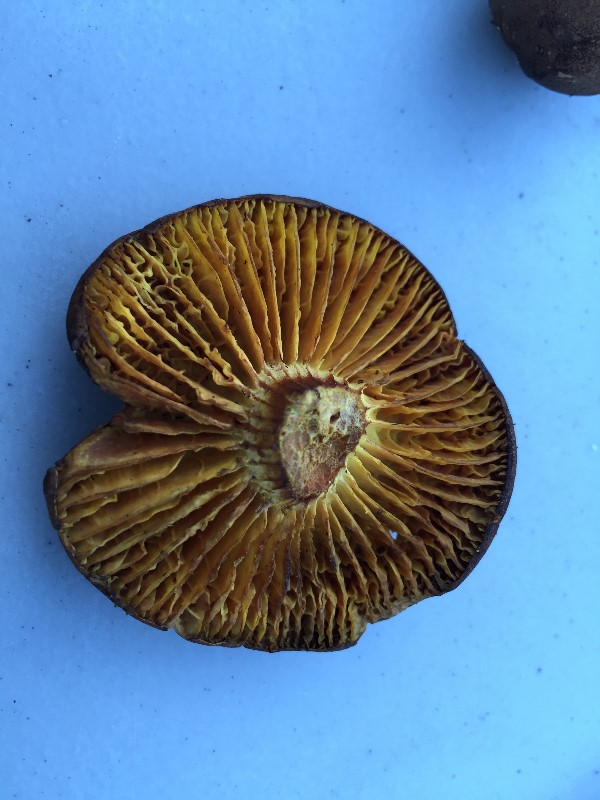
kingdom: Fungi
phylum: Basidiomycota
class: Agaricomycetes
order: Boletales
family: Boletaceae
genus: Phylloporus
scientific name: Phylloporus pelletieri
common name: lamelrørhat
